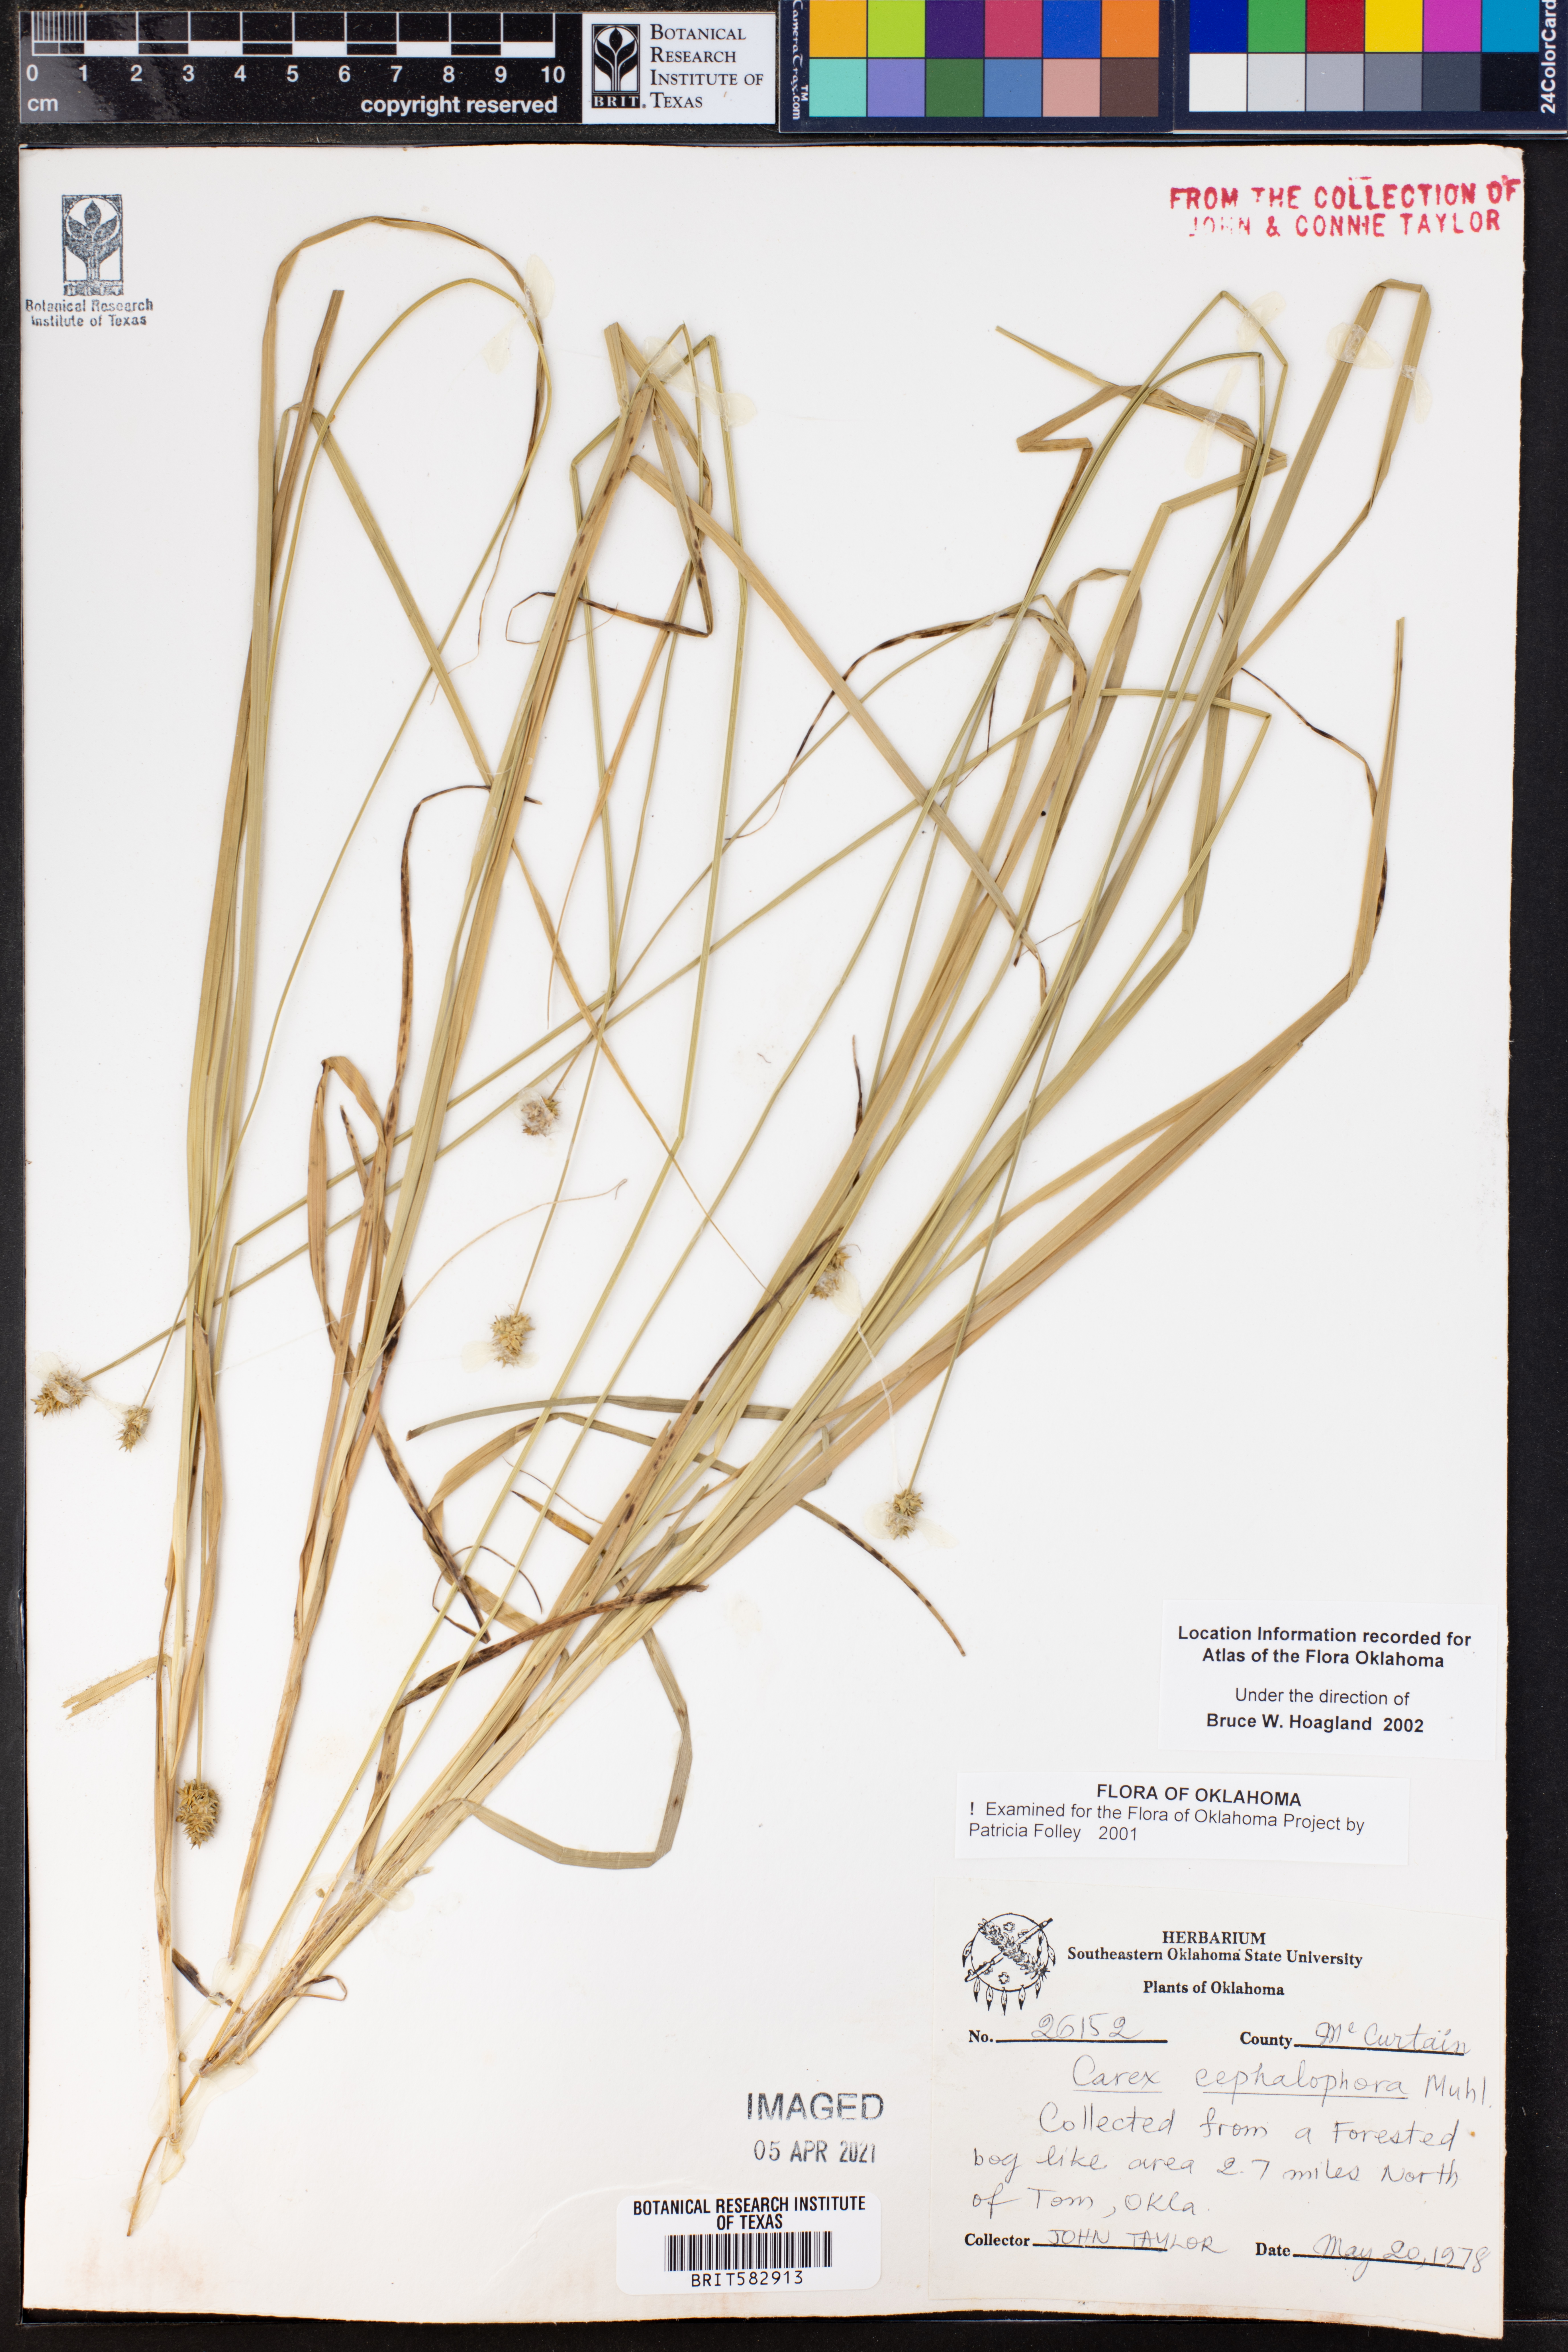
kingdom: Plantae
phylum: Tracheophyta
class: Liliopsida
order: Poales
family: Cyperaceae
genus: Carex
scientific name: Carex cephalophora
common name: Oval-headed sedge
